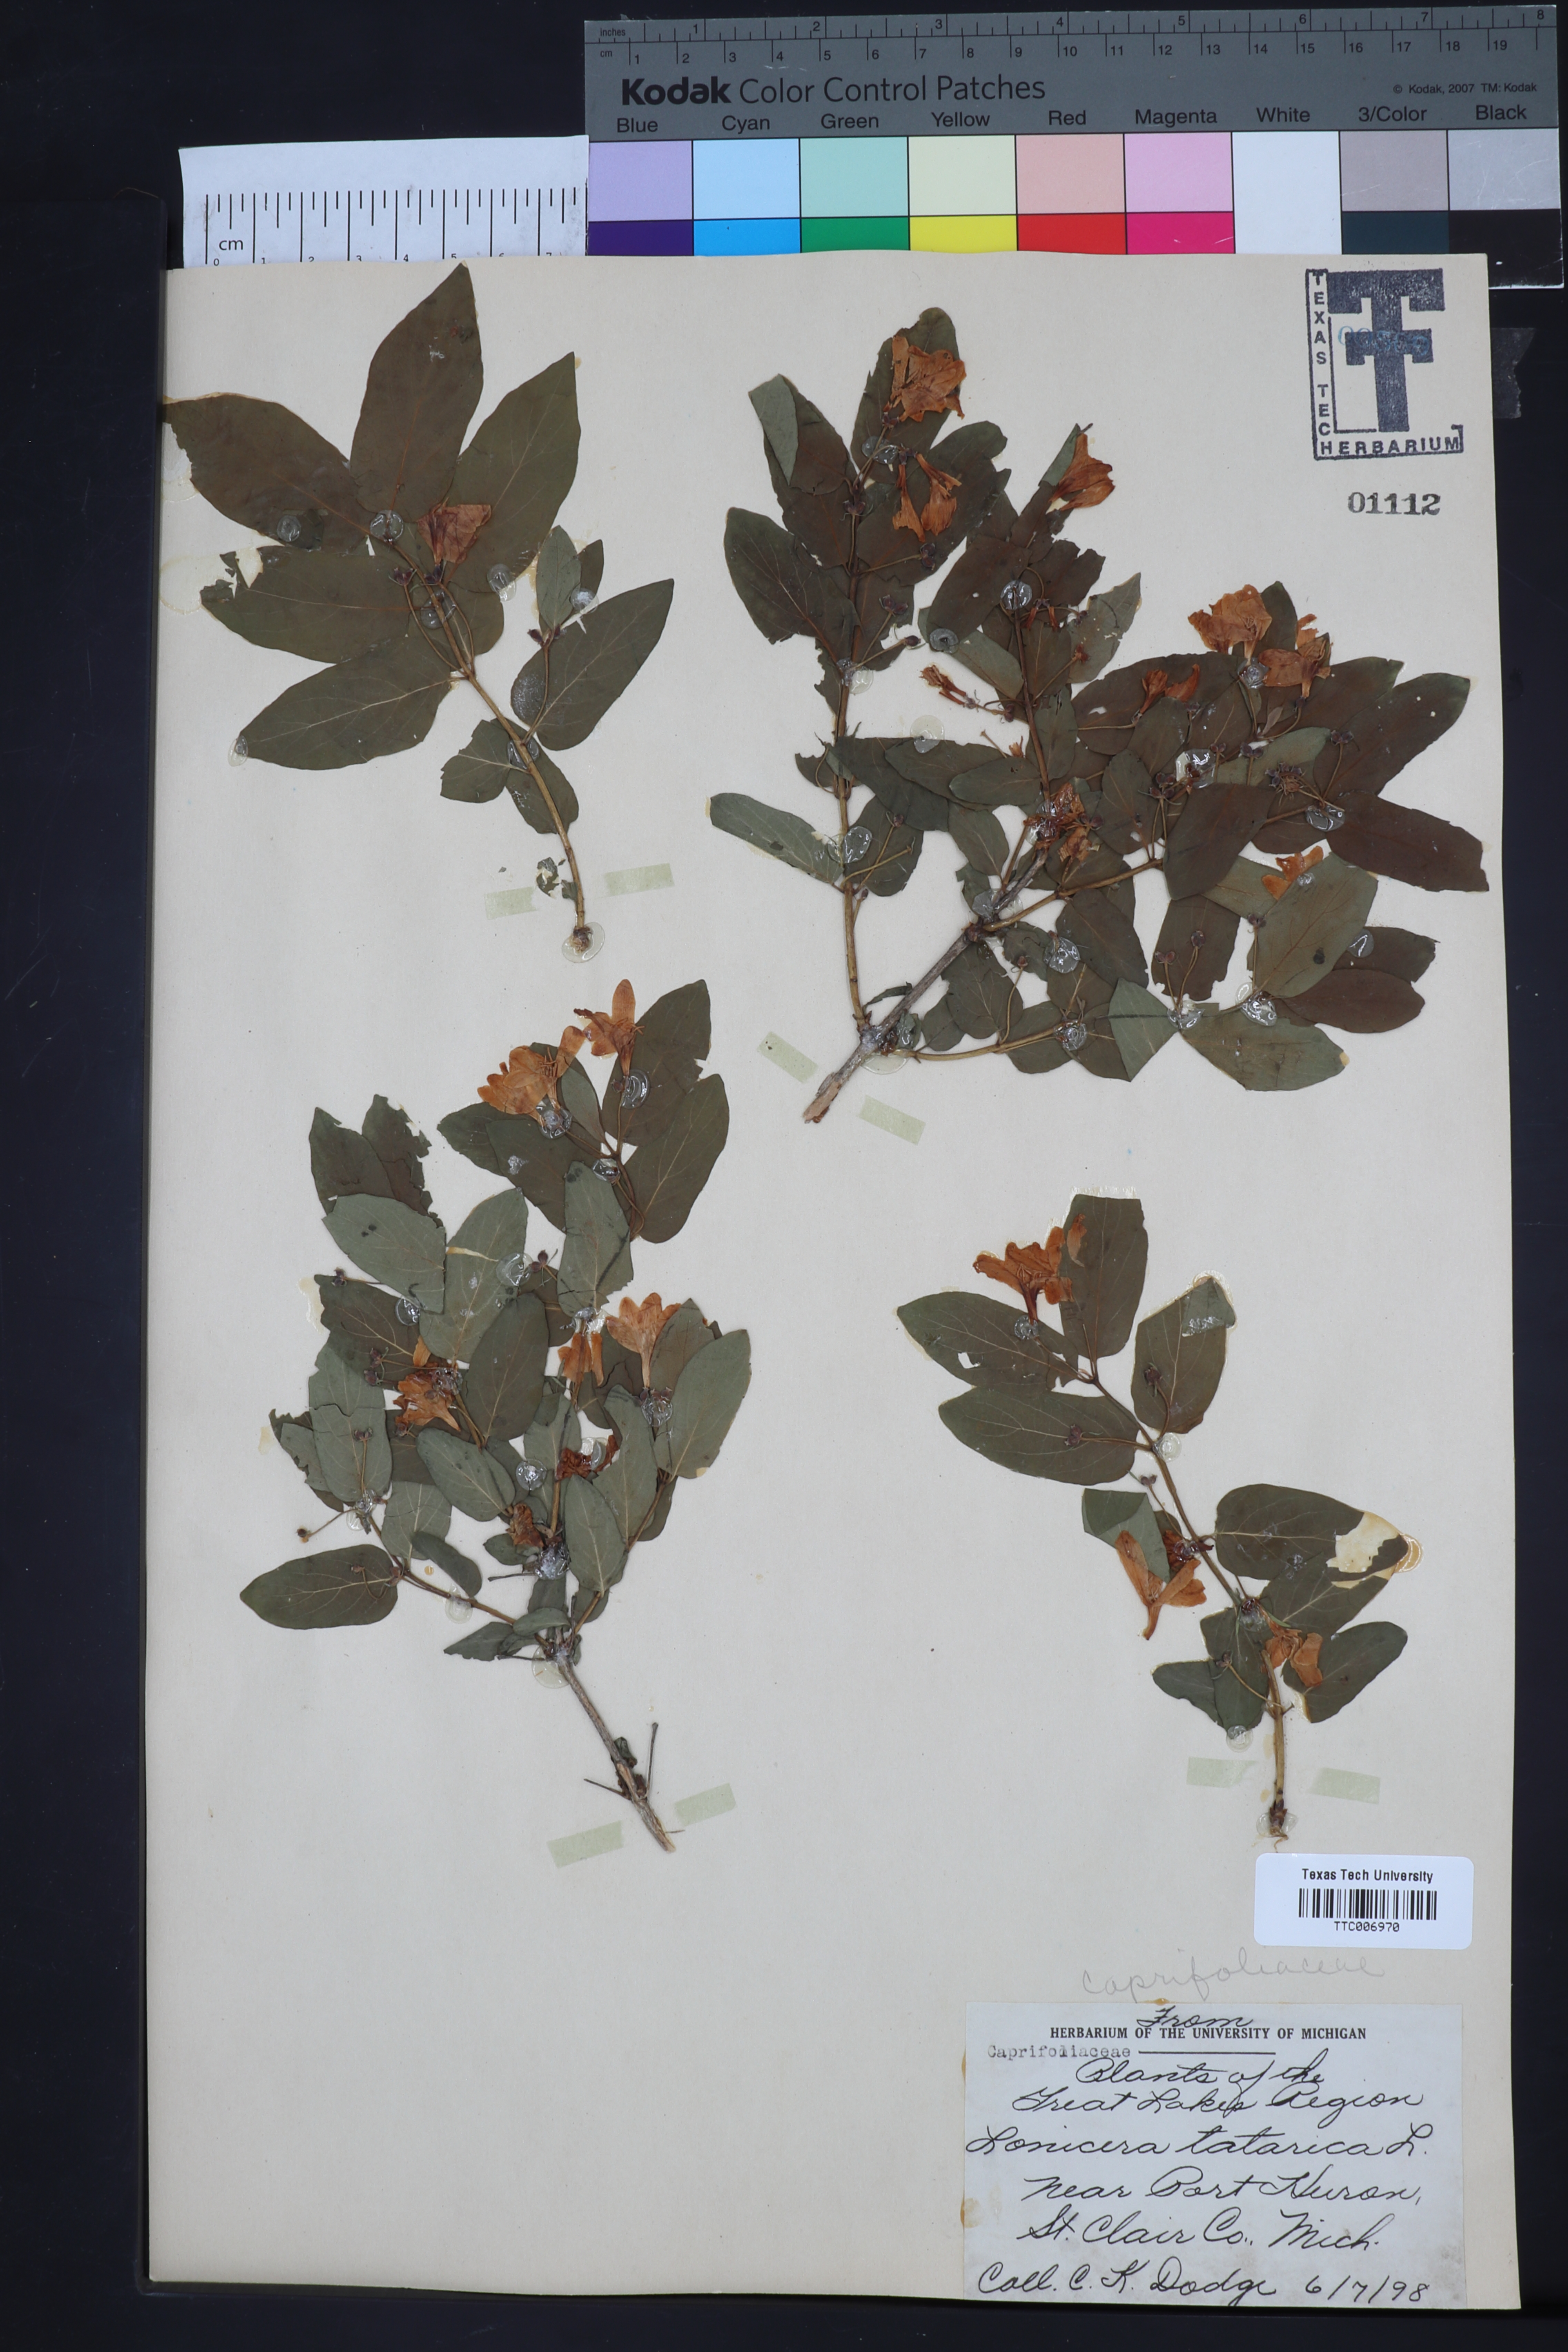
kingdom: Plantae
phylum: Tracheophyta
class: Magnoliopsida
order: Dipsacales
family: Caprifoliaceae
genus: Lonicera
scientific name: Lonicera tatarica
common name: Tatarian honeysuckle
